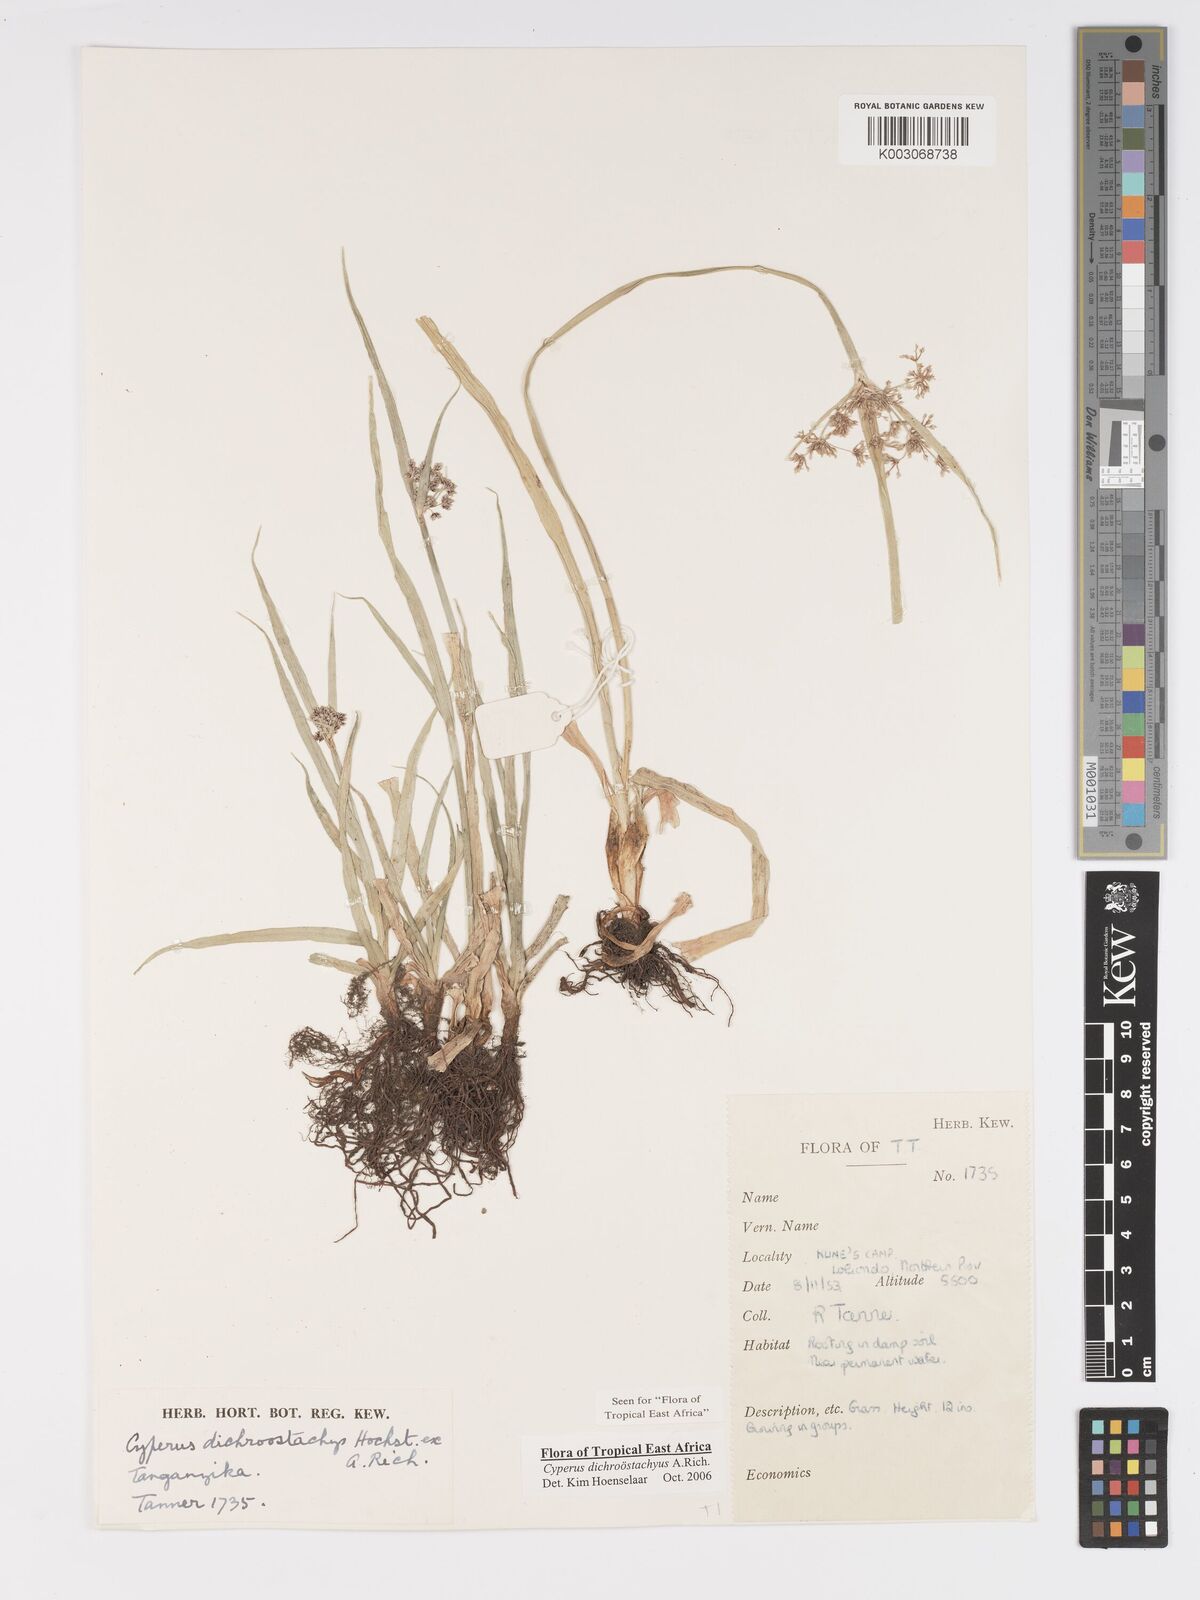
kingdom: Plantae
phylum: Tracheophyta
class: Liliopsida
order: Poales
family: Cyperaceae
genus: Cyperus
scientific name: Cyperus dichrostachyus
